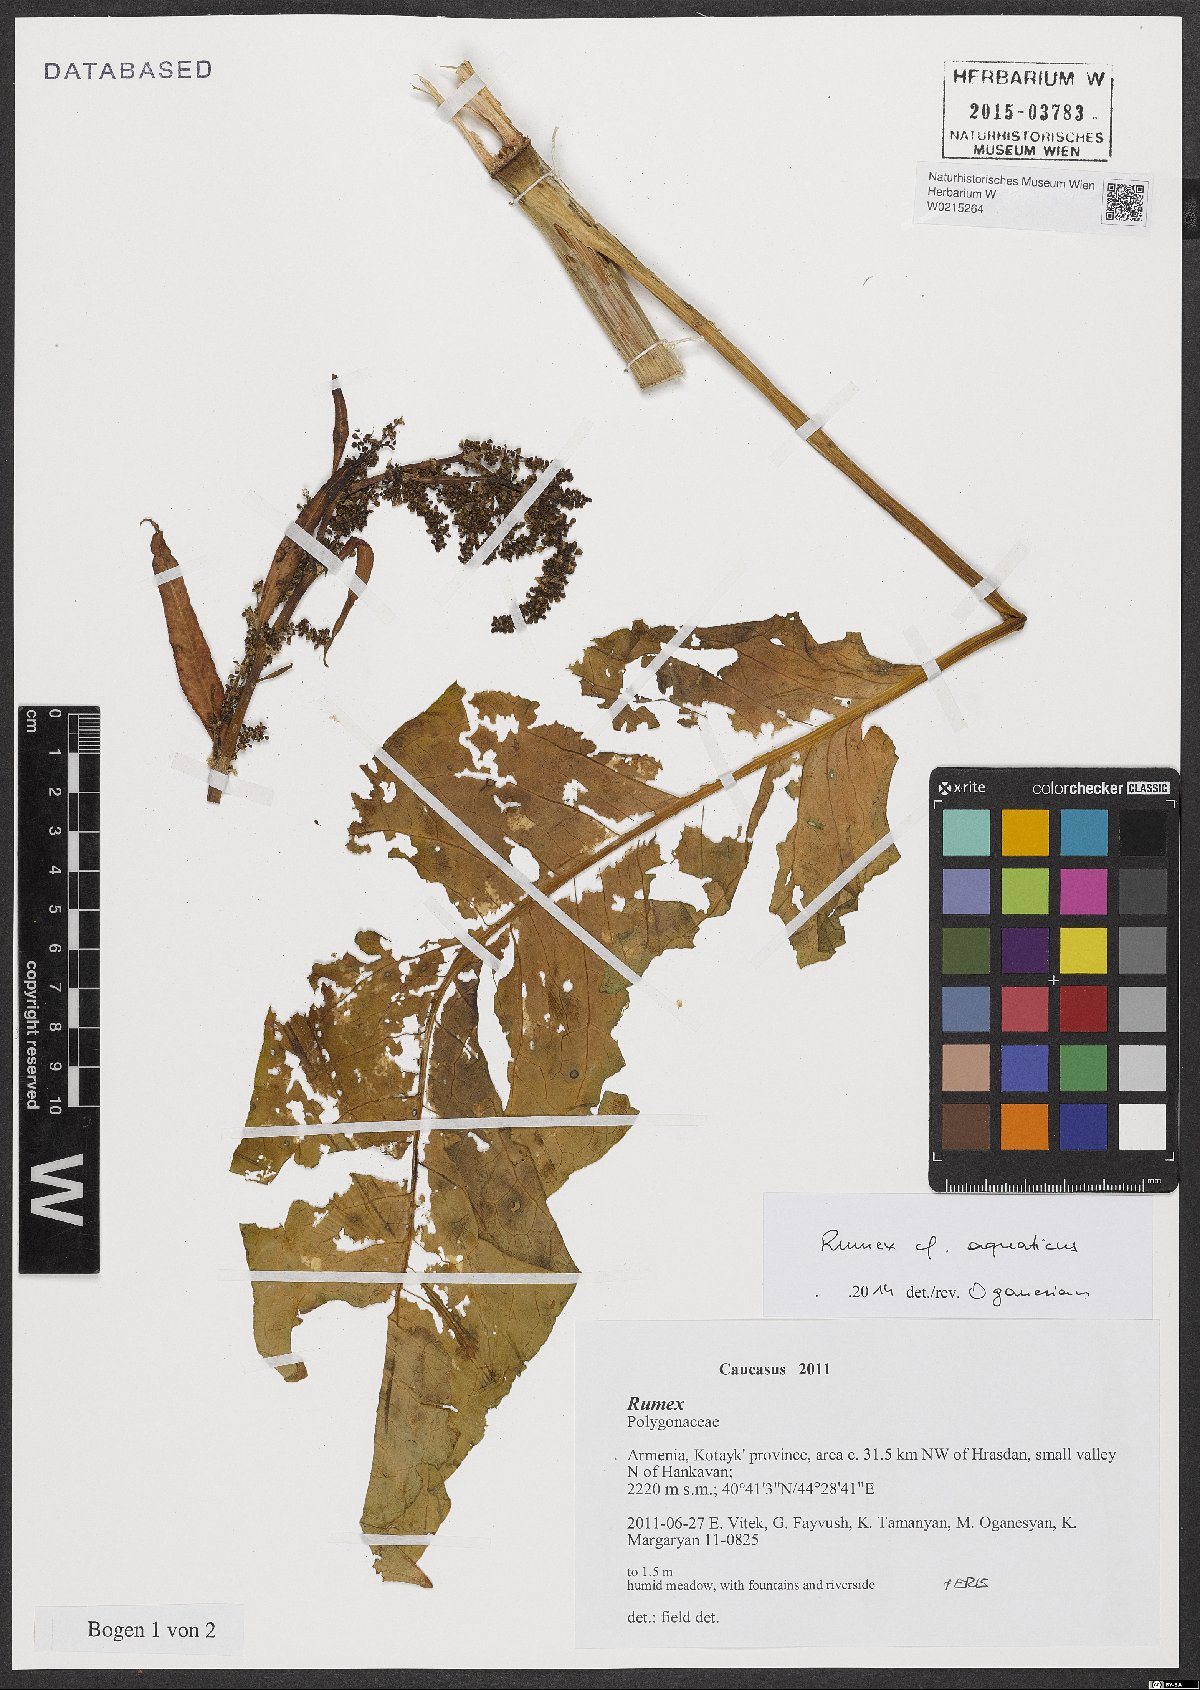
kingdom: Plantae
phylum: Tracheophyta
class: Magnoliopsida
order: Caryophyllales
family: Polygonaceae
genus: Rumex
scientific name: Rumex aquaticus
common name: Scottish dock
